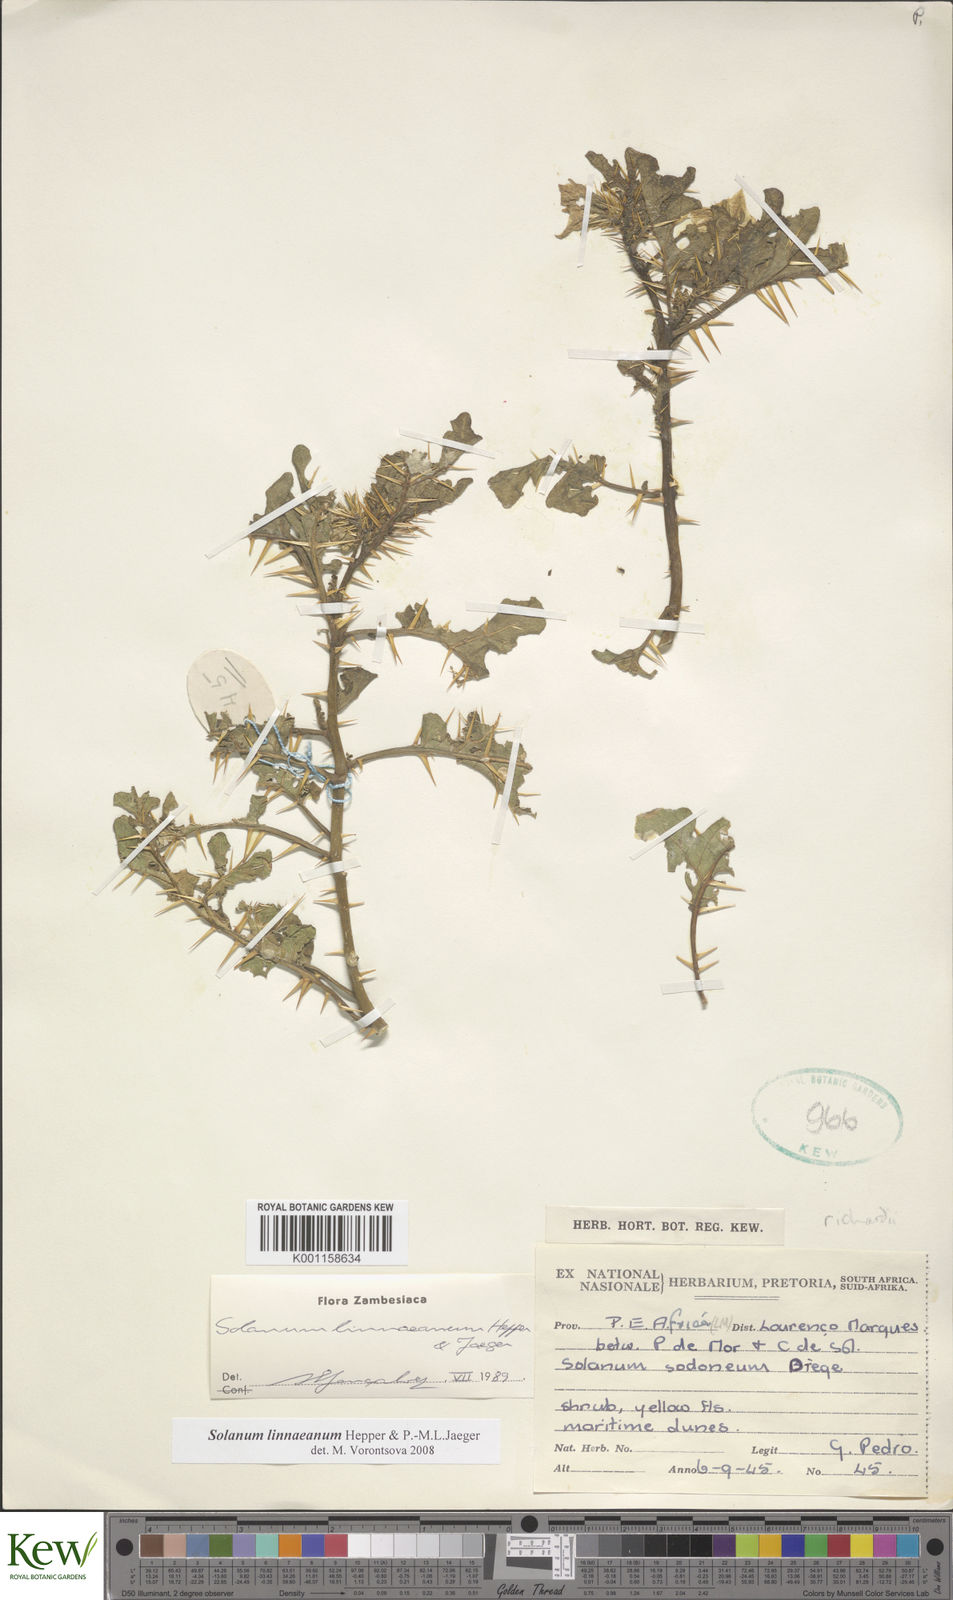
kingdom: Plantae
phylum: Tracheophyta
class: Magnoliopsida
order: Solanales
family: Solanaceae
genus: Solanum
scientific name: Solanum linnaeanum
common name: Nightshade
